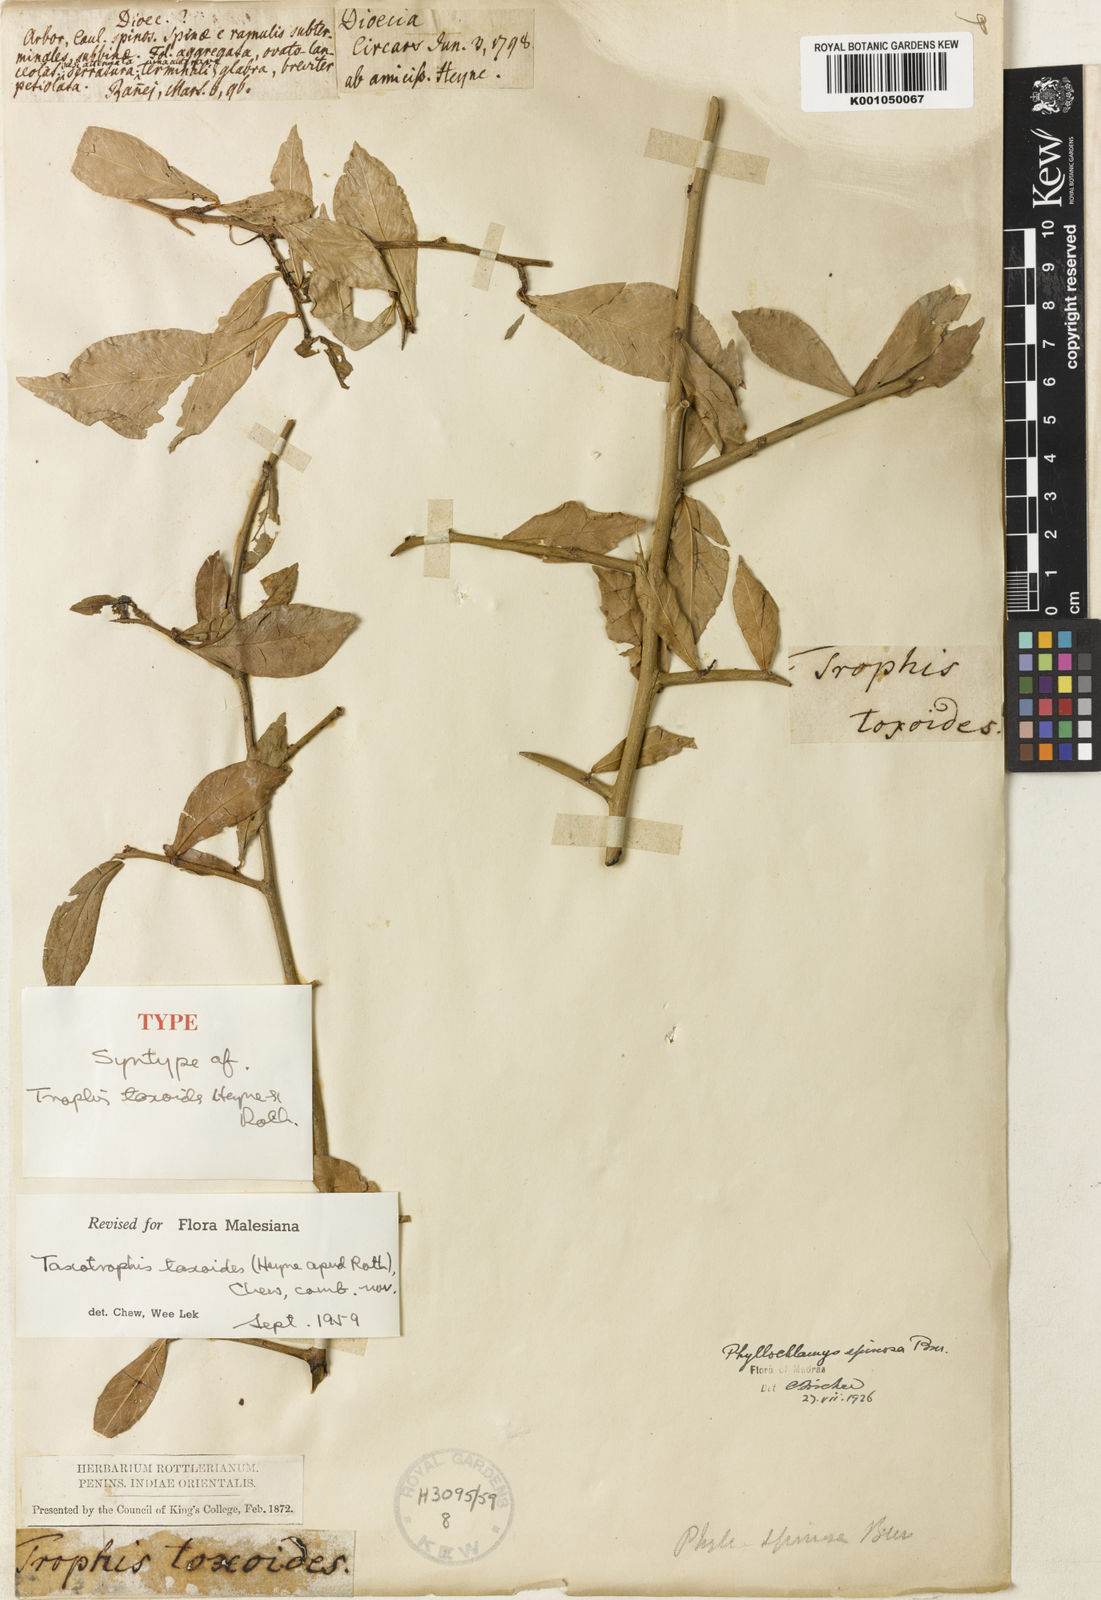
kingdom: Plantae
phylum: Tracheophyta
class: Magnoliopsida
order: Rosales
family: Moraceae
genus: Taxotrophis
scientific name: Taxotrophis taxoides
